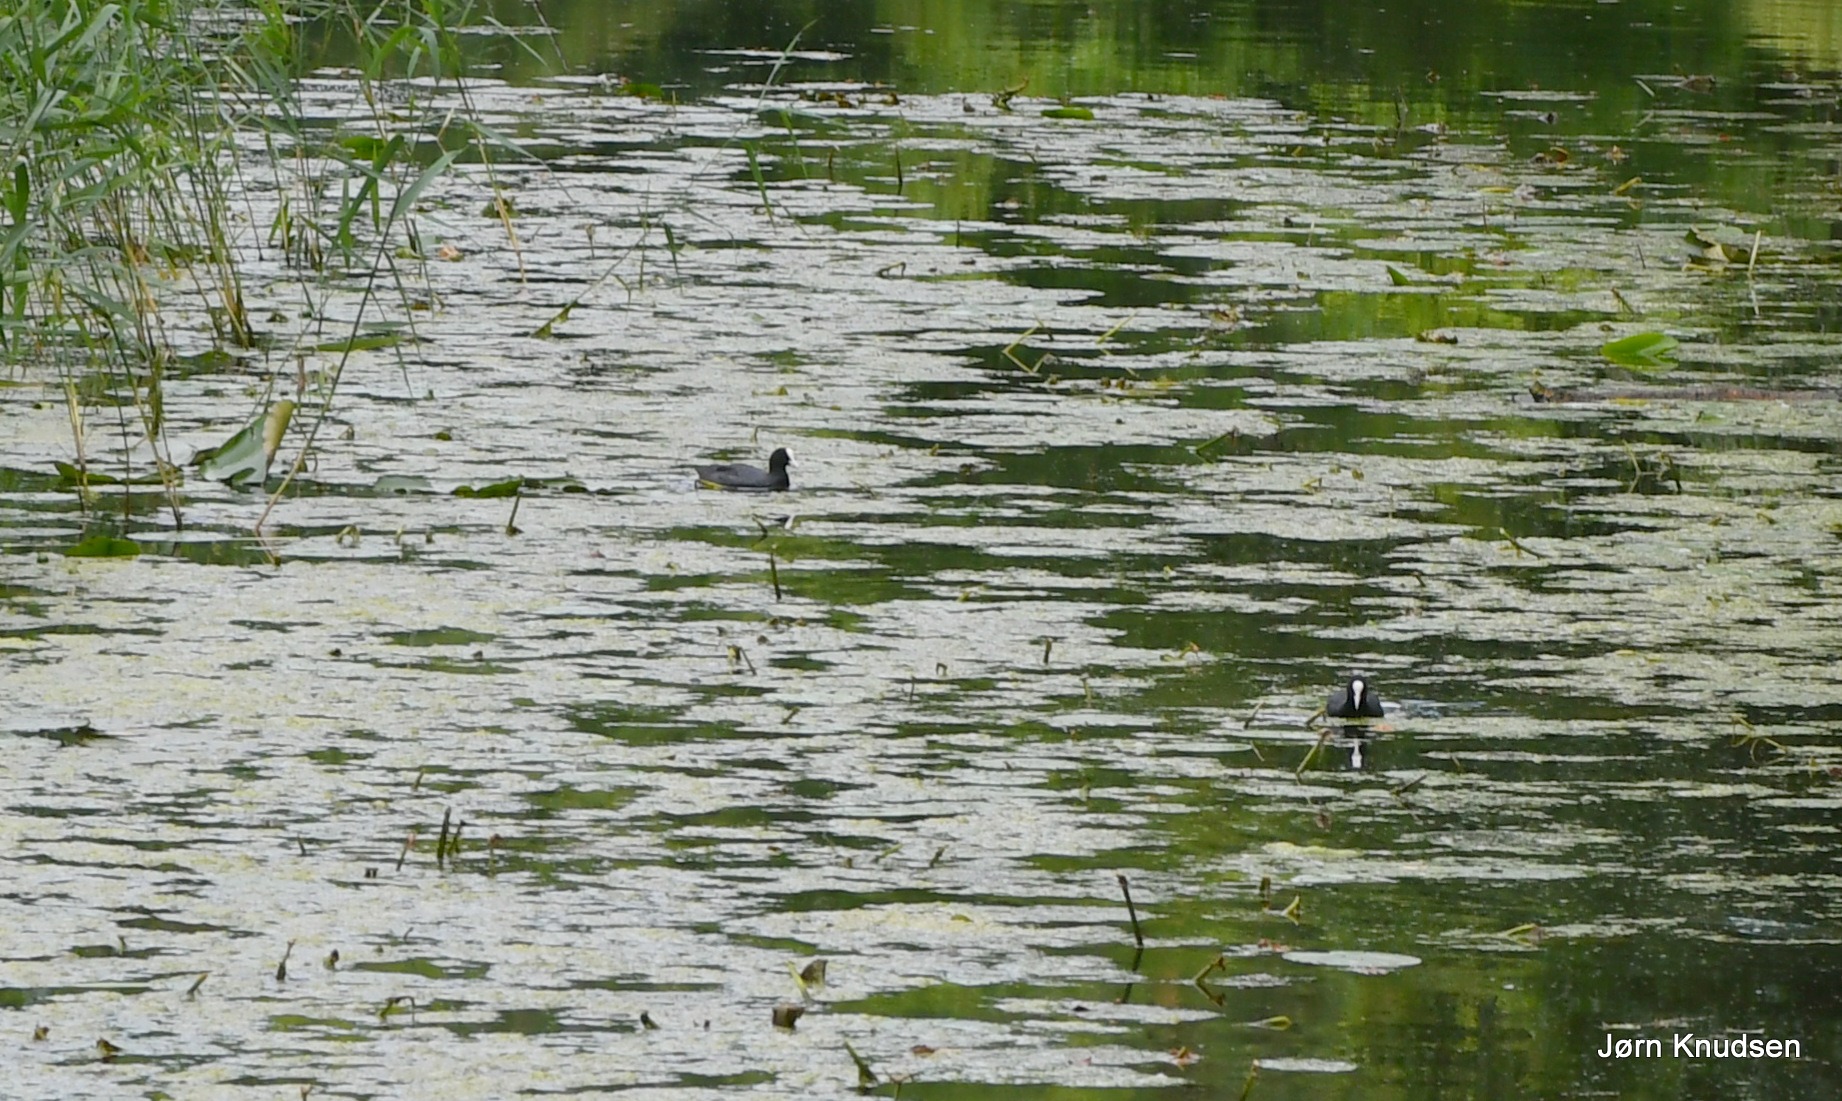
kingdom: Animalia
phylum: Chordata
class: Aves
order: Gruiformes
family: Rallidae
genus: Fulica
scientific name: Fulica atra
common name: Blishøne
